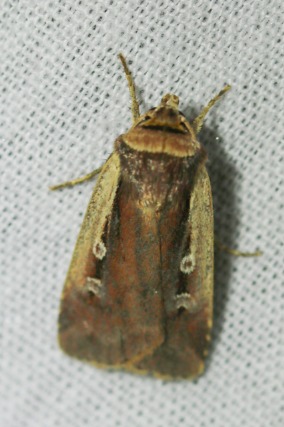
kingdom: Animalia
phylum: Arthropoda
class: Insecta
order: Lepidoptera
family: Noctuidae
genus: Ochropleura
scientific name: Ochropleura plecta
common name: Hvidrandet jordugle
